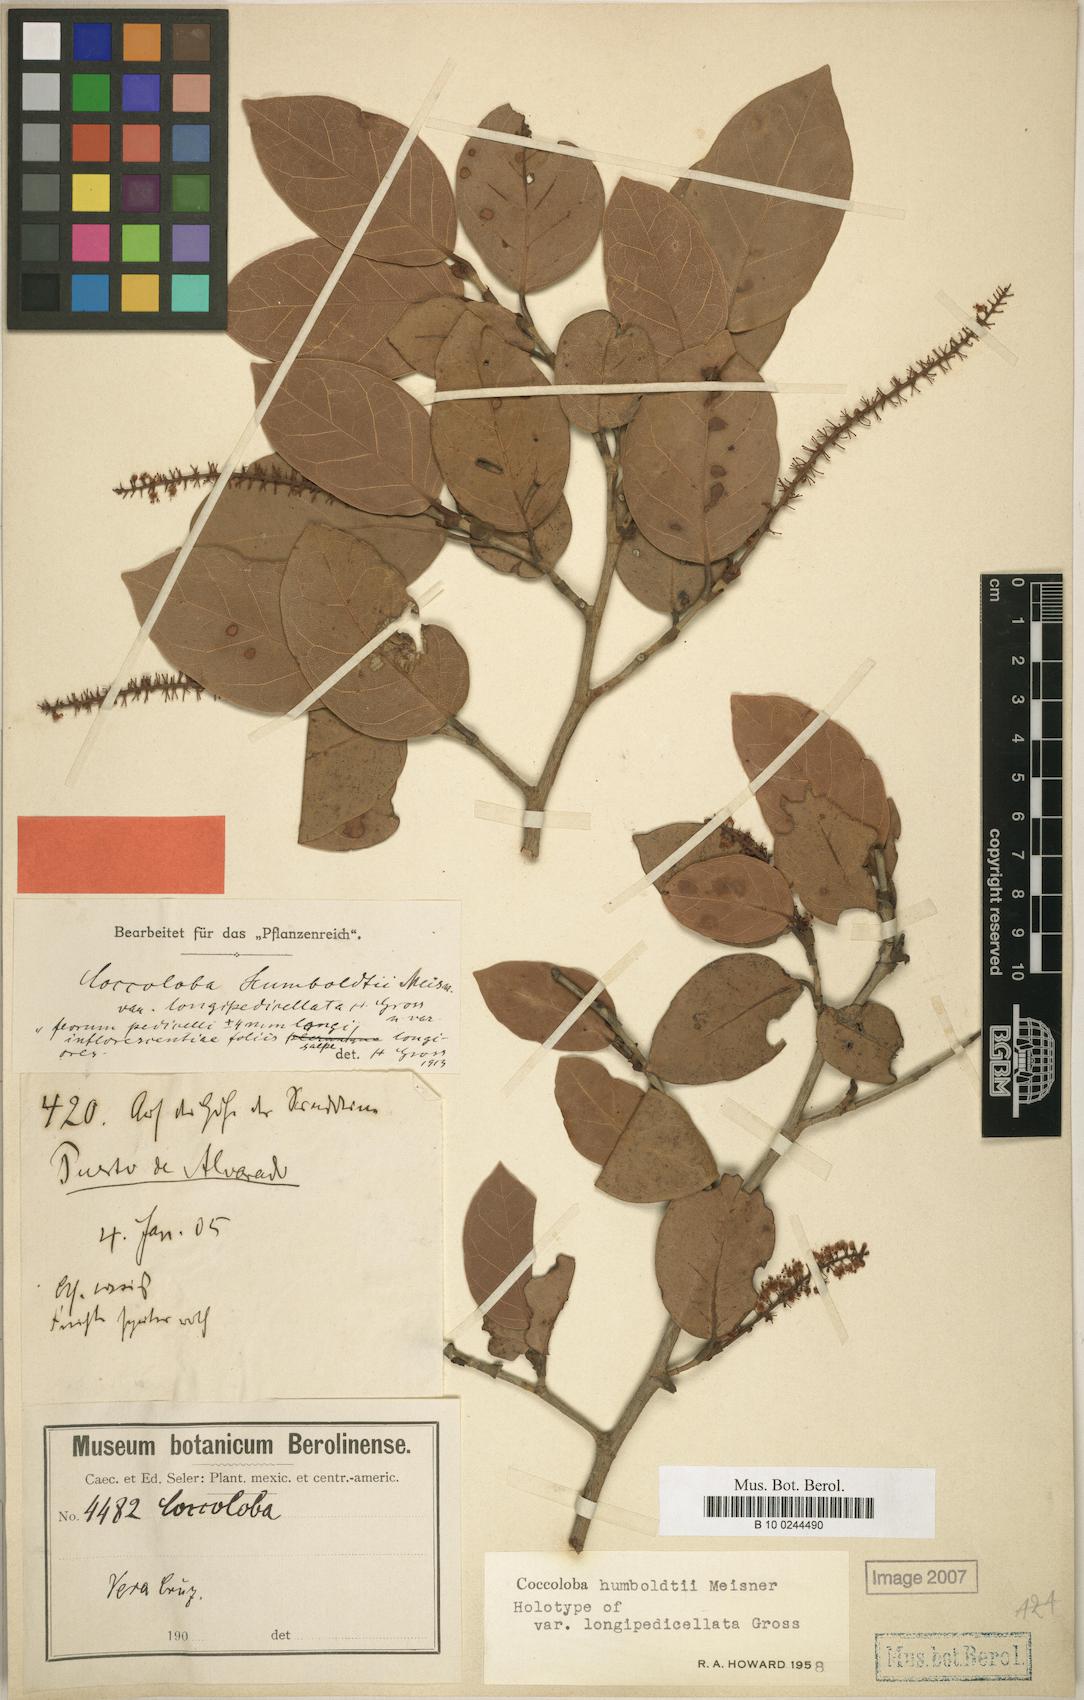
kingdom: Plantae
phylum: Tracheophyta
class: Magnoliopsida
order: Caryophyllales
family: Polygonaceae
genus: Coccoloba
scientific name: Coccoloba humboldtii
